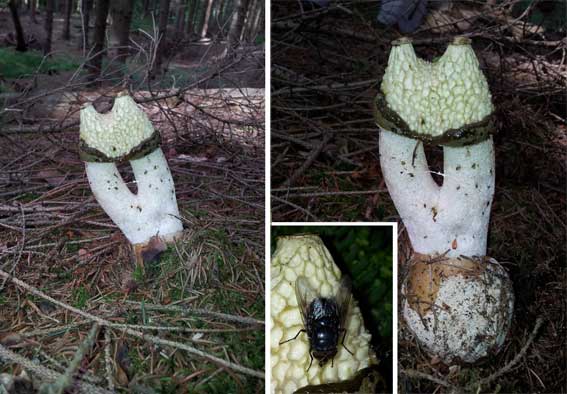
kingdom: Fungi
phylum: Basidiomycota
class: Agaricomycetes
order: Phallales
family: Phallaceae
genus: Phallus
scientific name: Phallus impudicus
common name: almindelig stinksvamp
